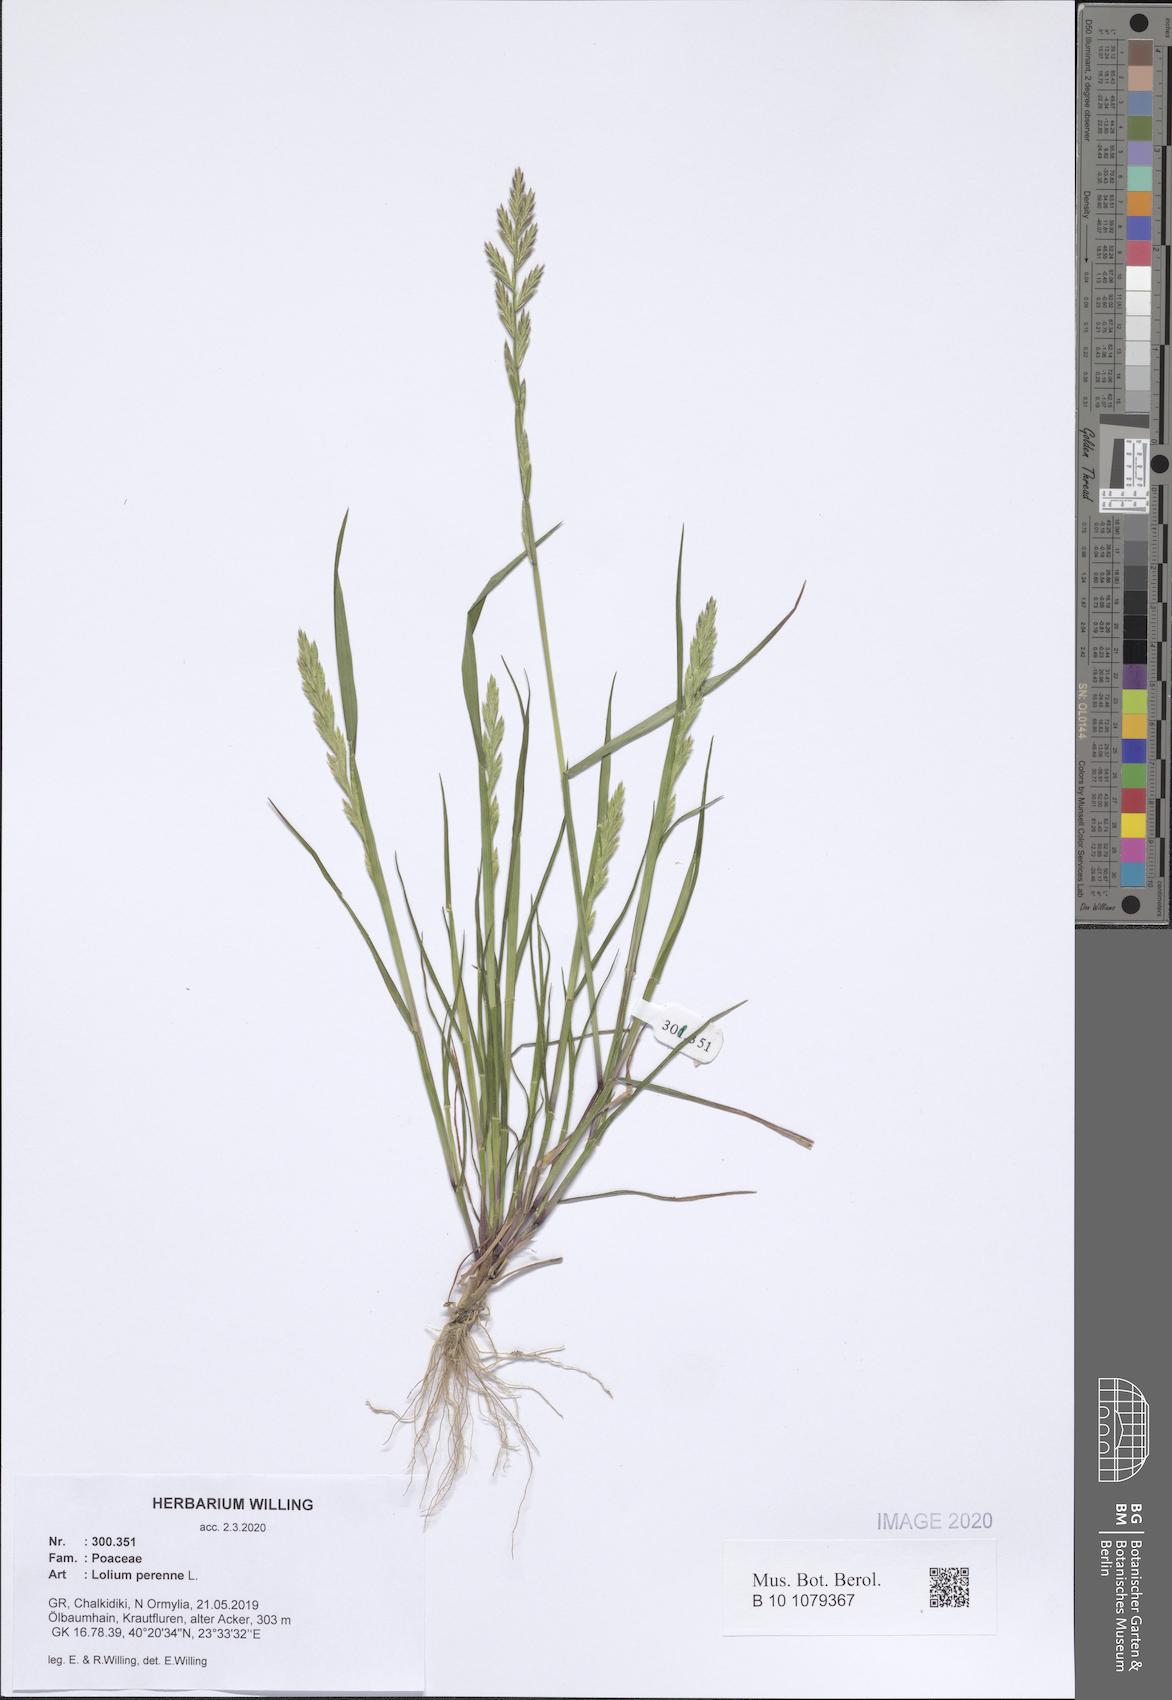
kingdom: Plantae
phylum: Tracheophyta
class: Liliopsida
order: Poales
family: Poaceae
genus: Lolium
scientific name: Lolium perenne
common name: Perennial ryegrass
